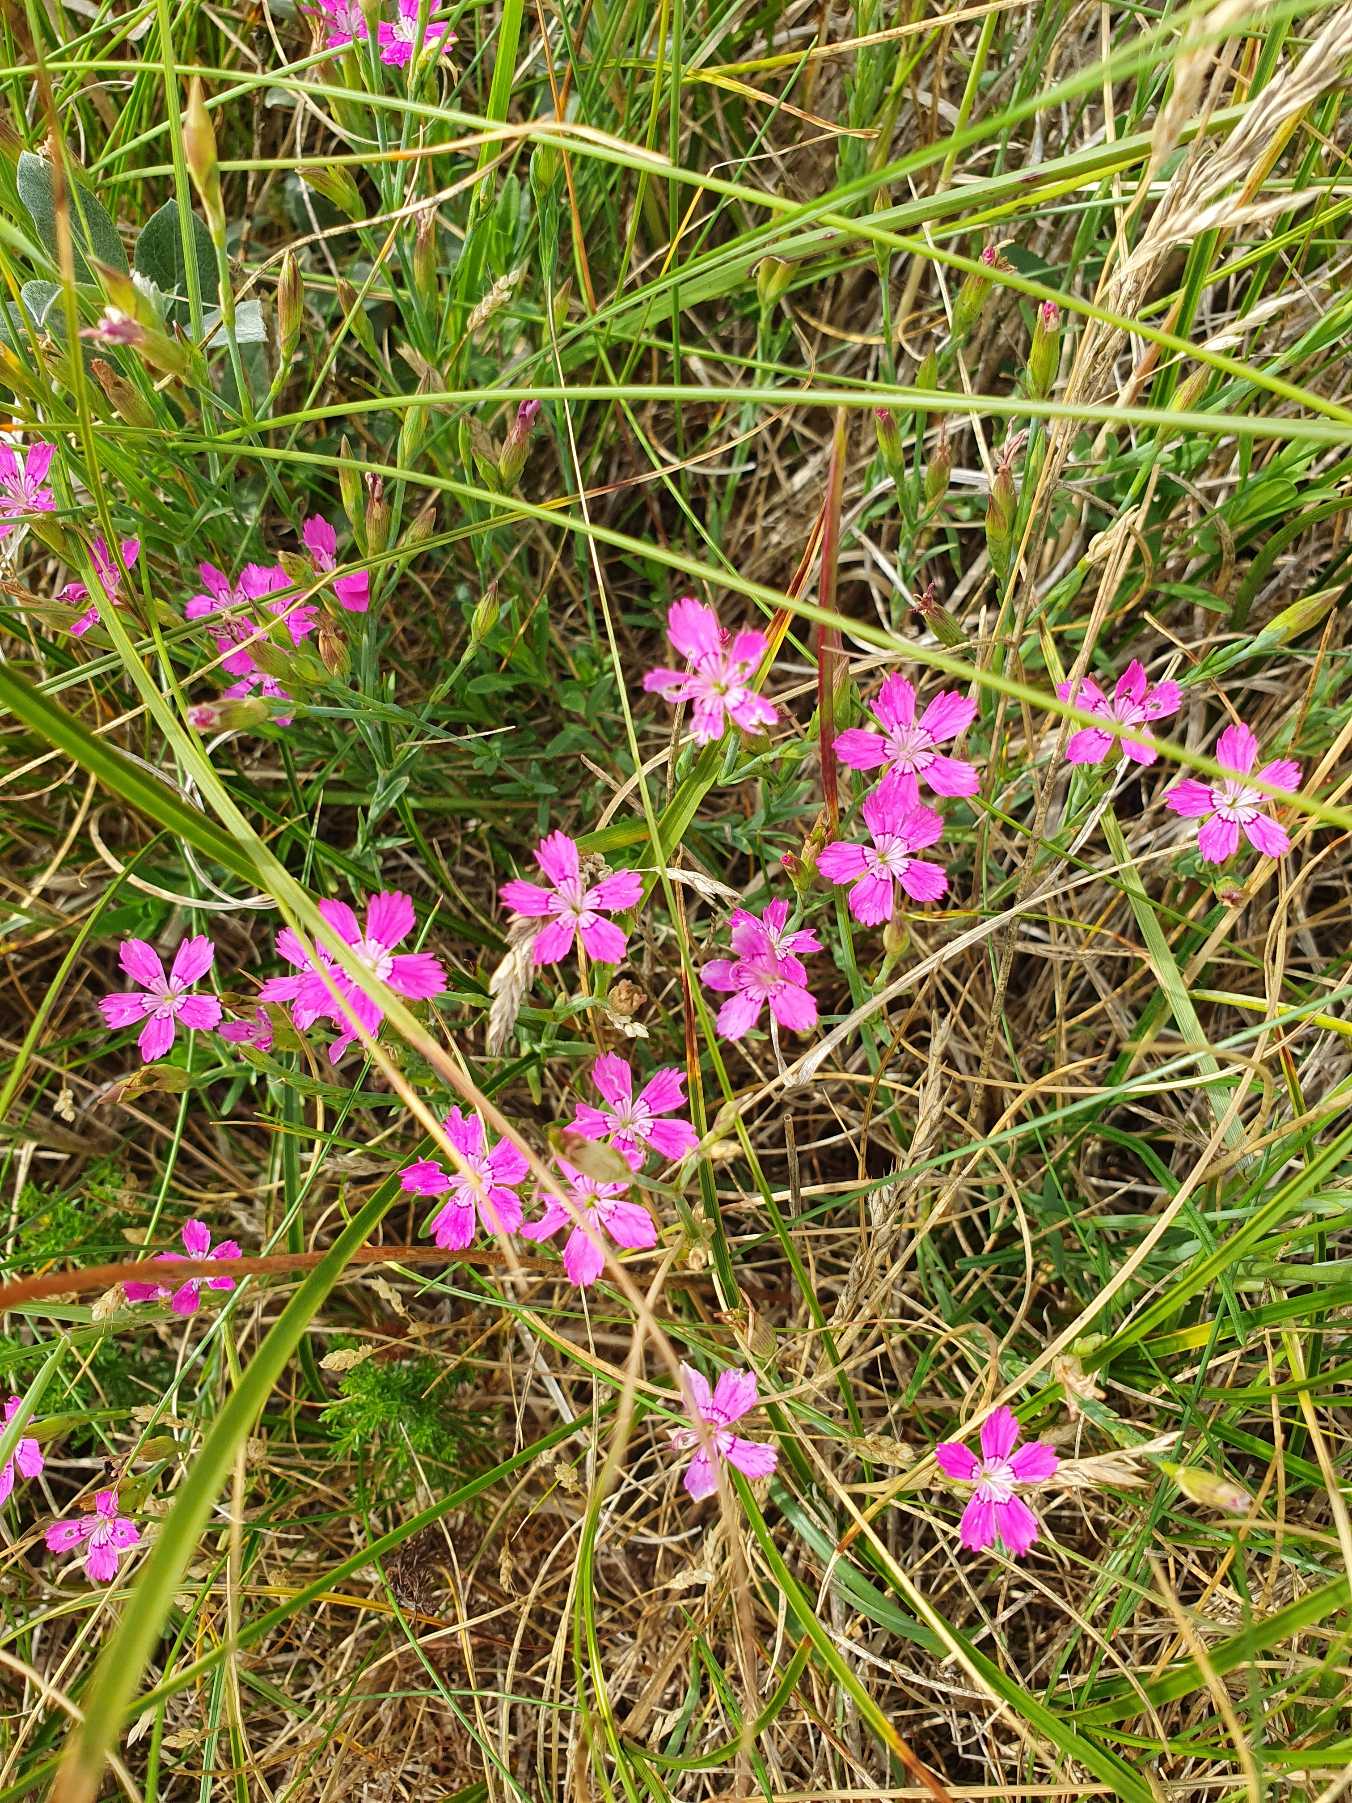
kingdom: Plantae
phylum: Tracheophyta
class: Magnoliopsida
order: Caryophyllales
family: Caryophyllaceae
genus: Dianthus
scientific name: Dianthus deltoides
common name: Bakke-nellike
